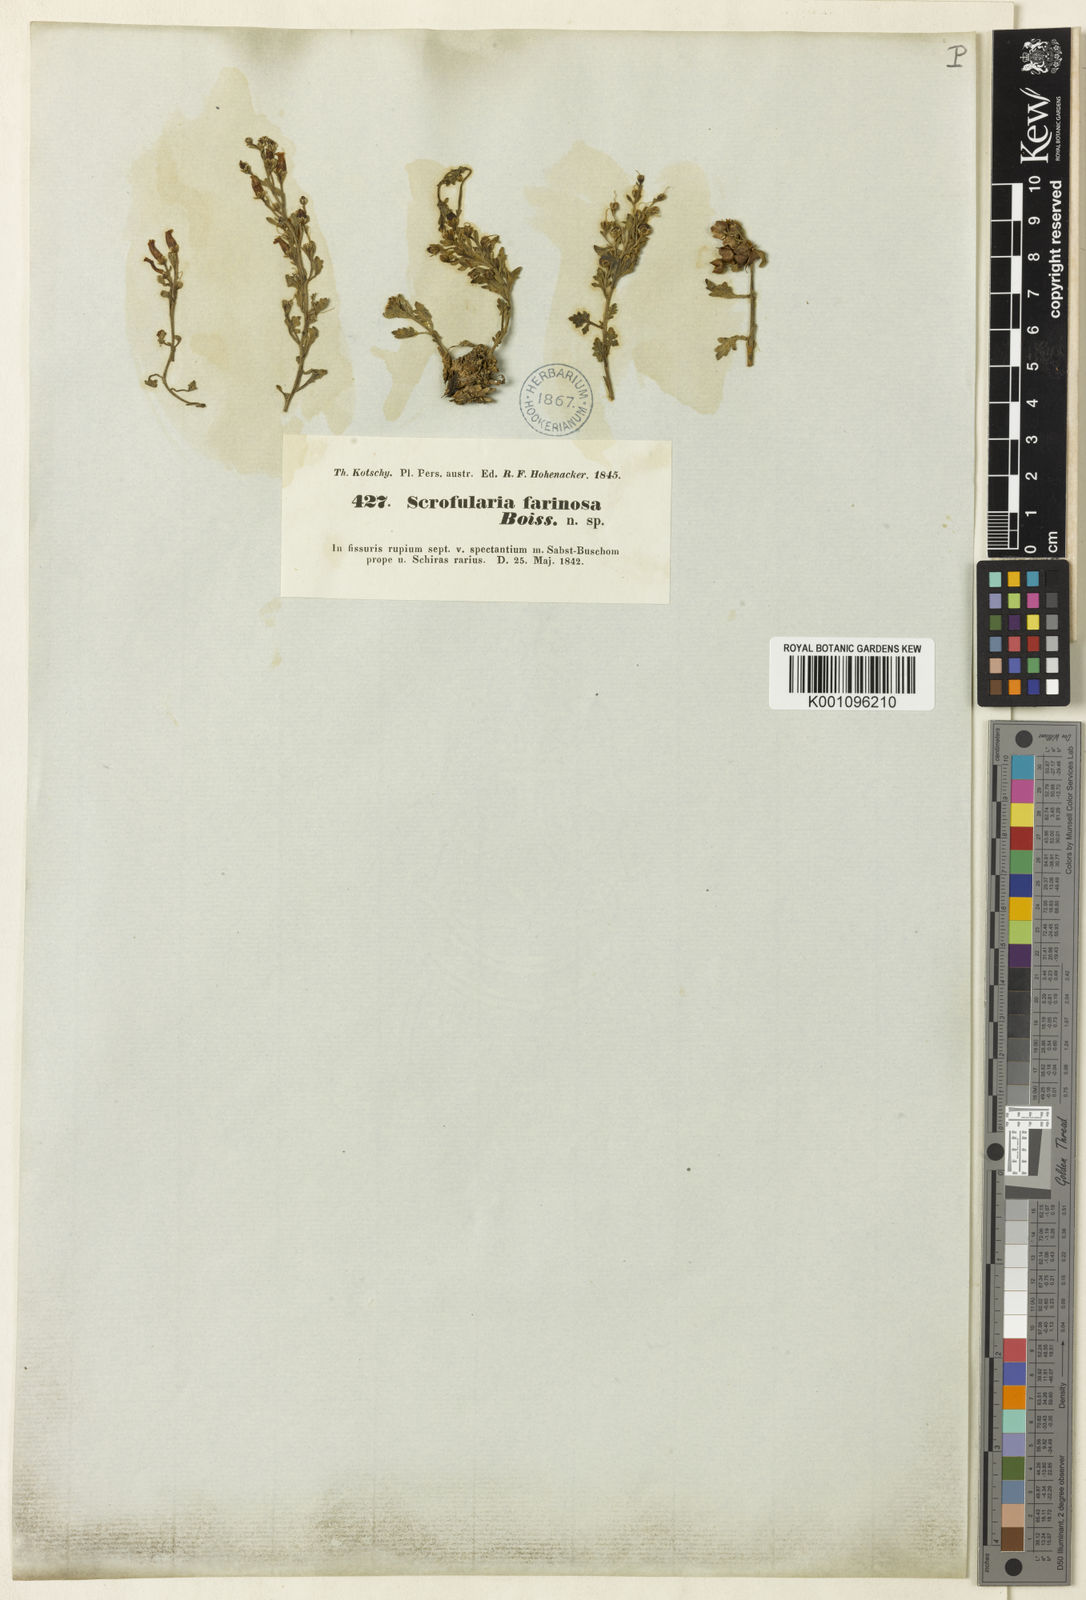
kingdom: Plantae
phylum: Tracheophyta
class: Magnoliopsida
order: Lamiales
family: Scrophulariaceae
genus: Scrophularia
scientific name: Scrophularia longiflora
